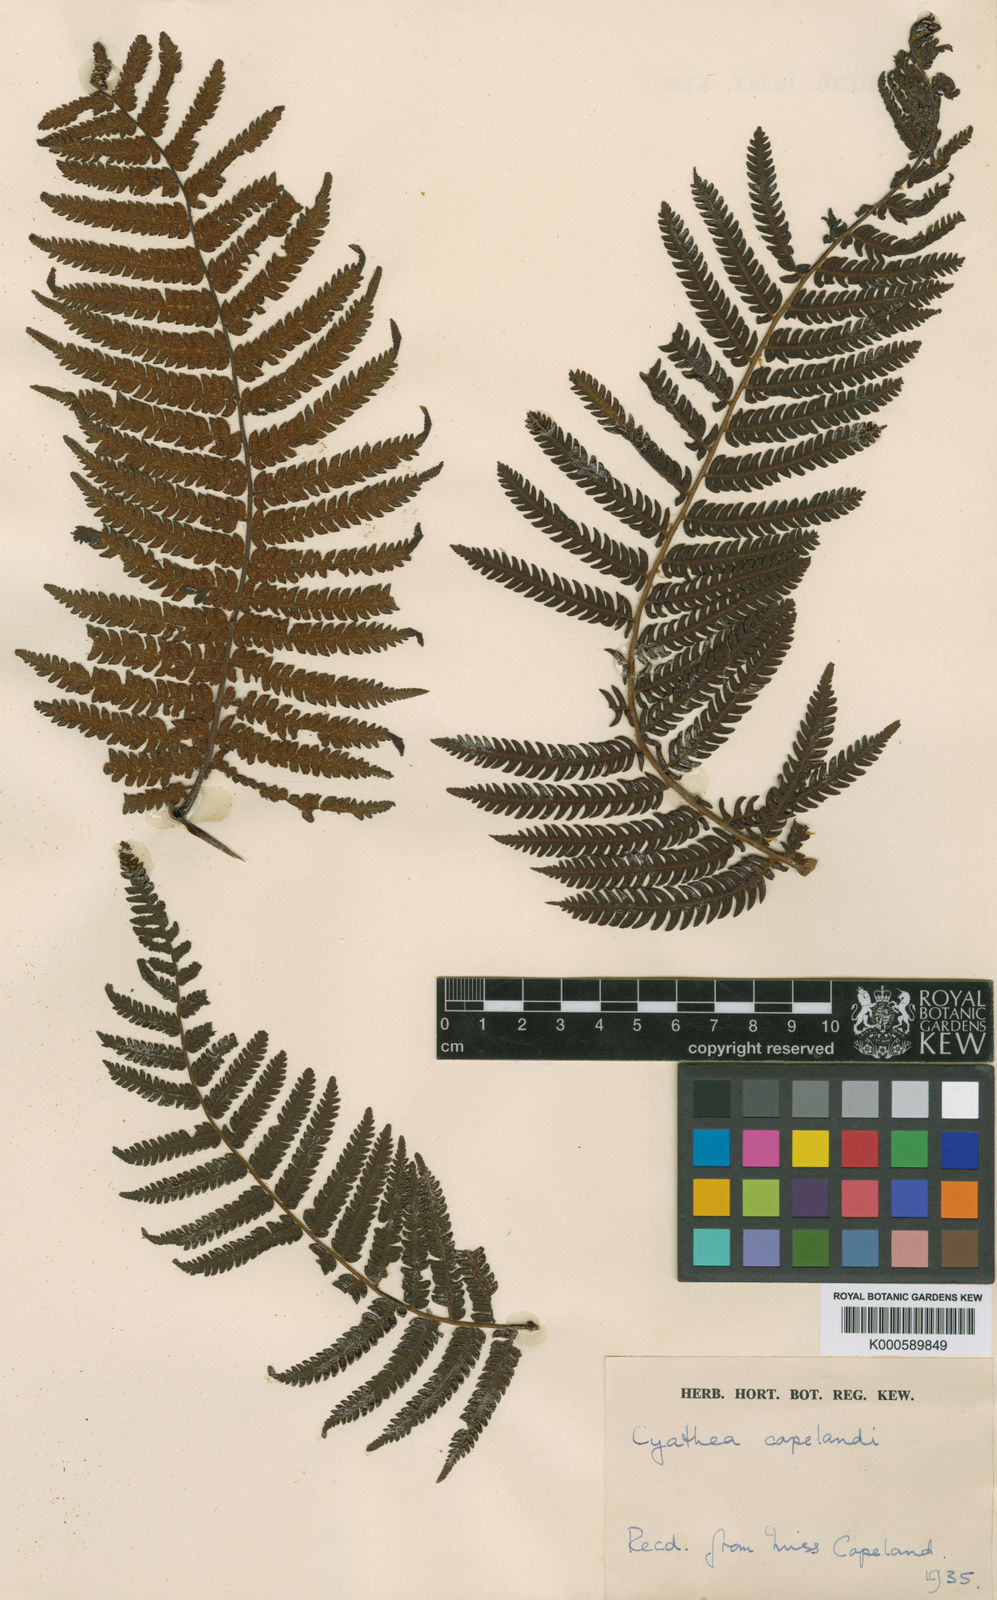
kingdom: Plantae
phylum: Tracheophyta
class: Polypodiopsida
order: Cyatheales
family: Cyatheaceae
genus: Cyathea
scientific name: Cyathea delgadii
